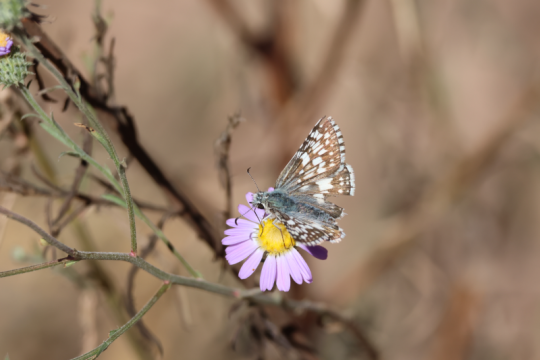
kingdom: Animalia
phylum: Arthropoda
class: Insecta
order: Lepidoptera
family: Hesperiidae
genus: Pyrgus
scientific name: Pyrgus communis
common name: Common Checkered-Skipper
